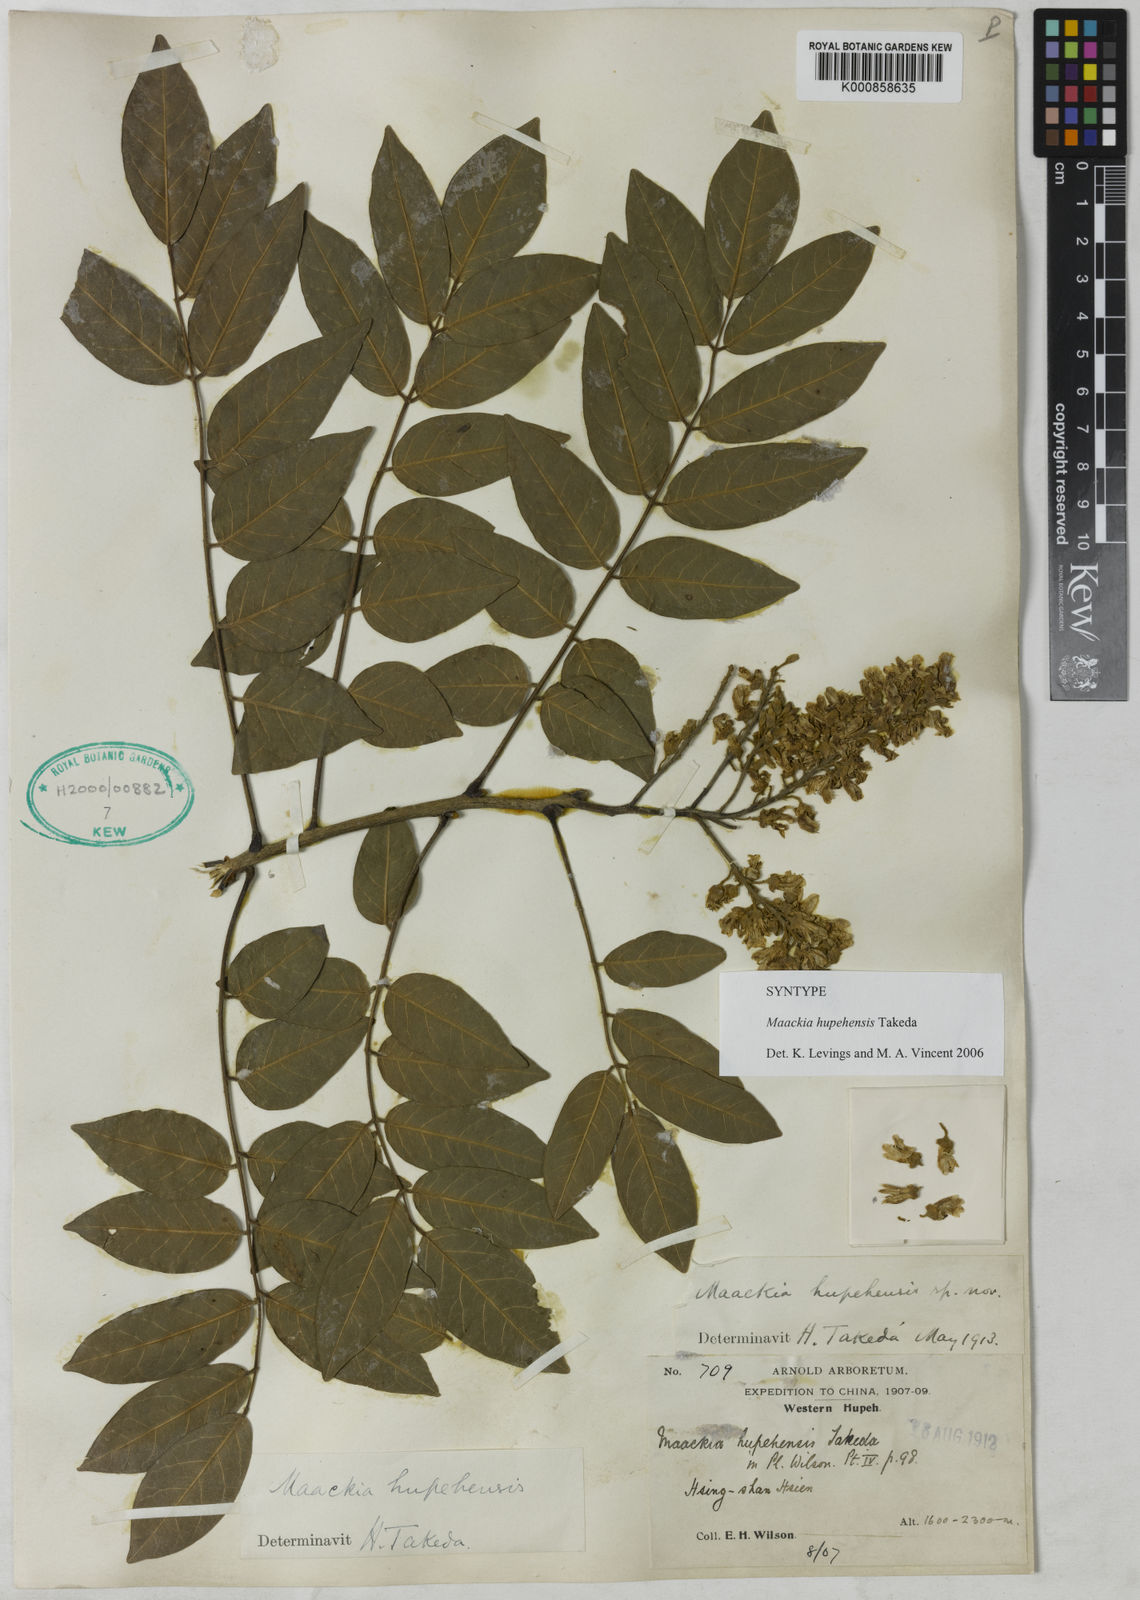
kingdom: Plantae
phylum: Tracheophyta
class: Magnoliopsida
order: Fabales
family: Fabaceae
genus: Maackia
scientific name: Maackia hupehensis
